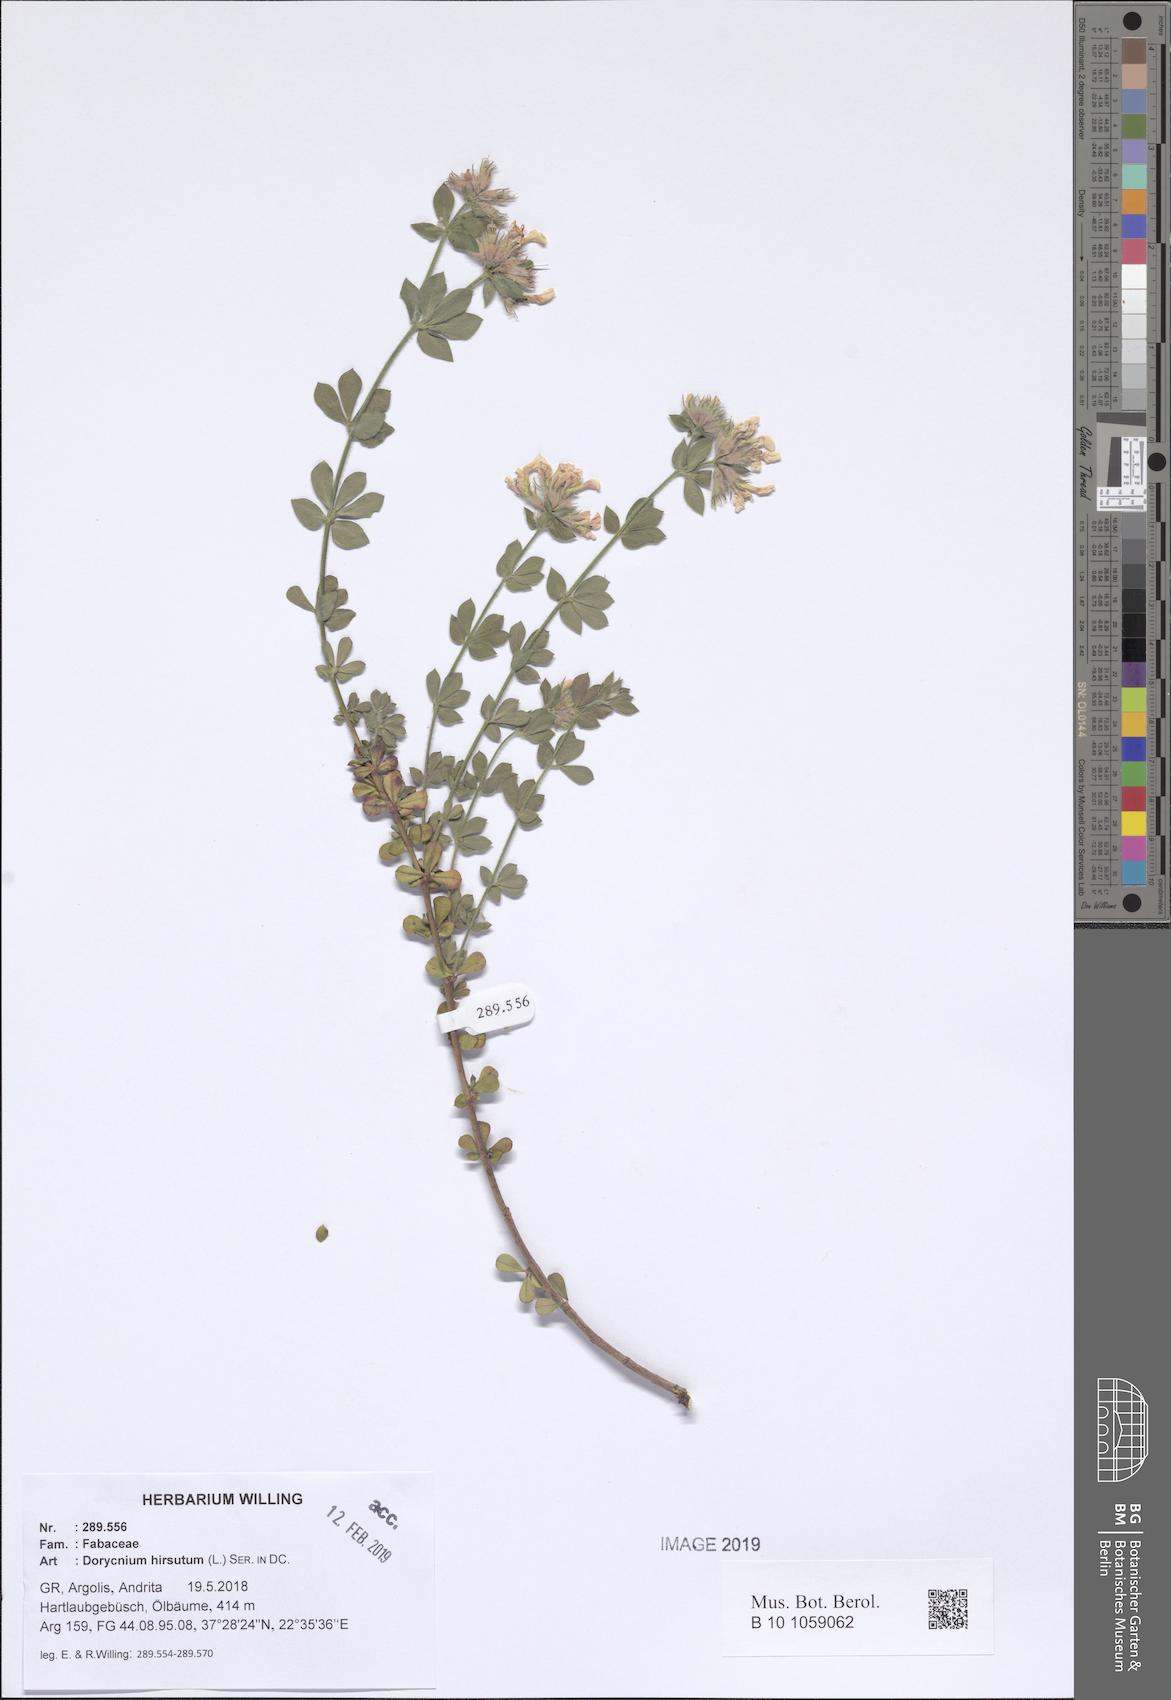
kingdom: Plantae
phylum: Tracheophyta
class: Magnoliopsida
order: Fabales
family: Fabaceae
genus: Lotus
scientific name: Lotus hirsutus
